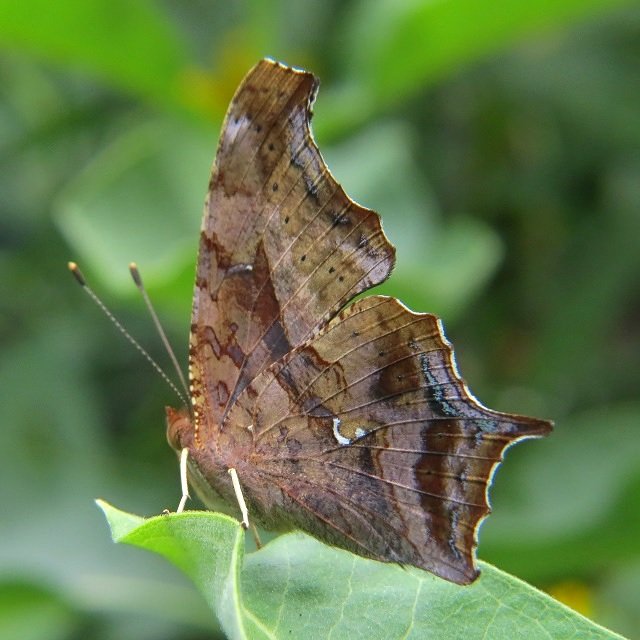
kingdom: Animalia
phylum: Arthropoda
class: Insecta
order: Lepidoptera
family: Nymphalidae
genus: Polygonia
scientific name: Polygonia interrogationis
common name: Question Mark
